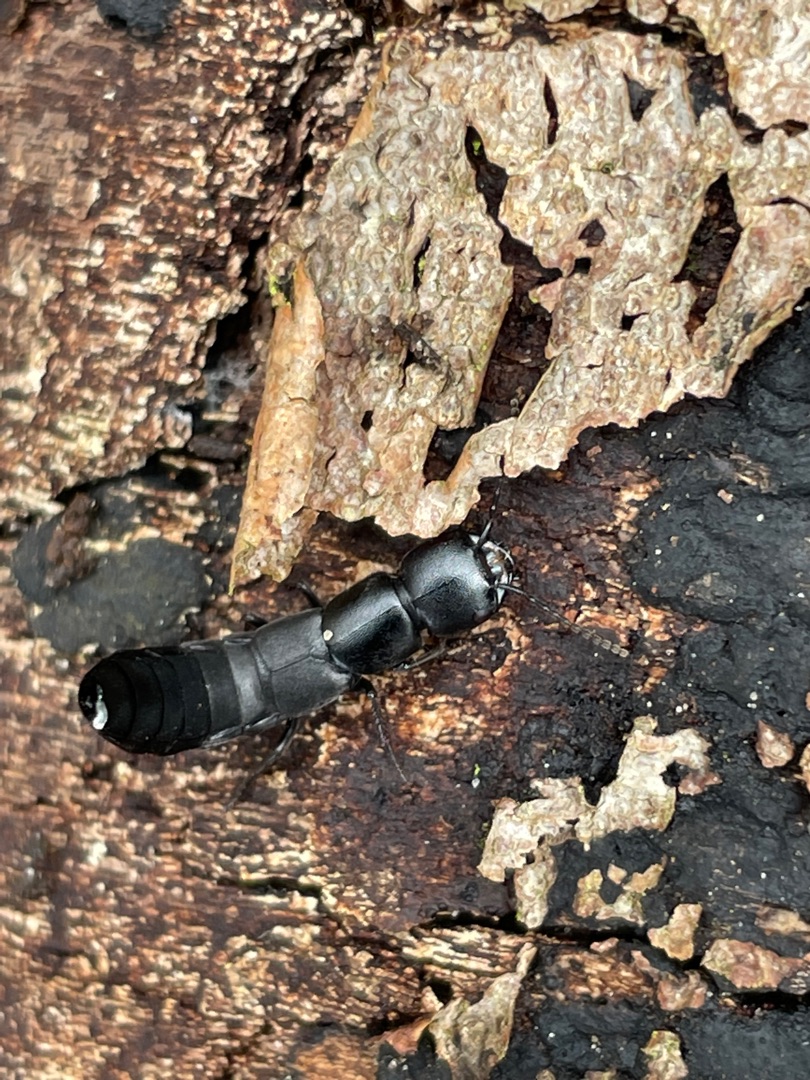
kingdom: Animalia
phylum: Arthropoda
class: Insecta
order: Coleoptera
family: Staphylinidae
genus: Ocypus
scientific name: Ocypus olens
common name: Stor rovbille
